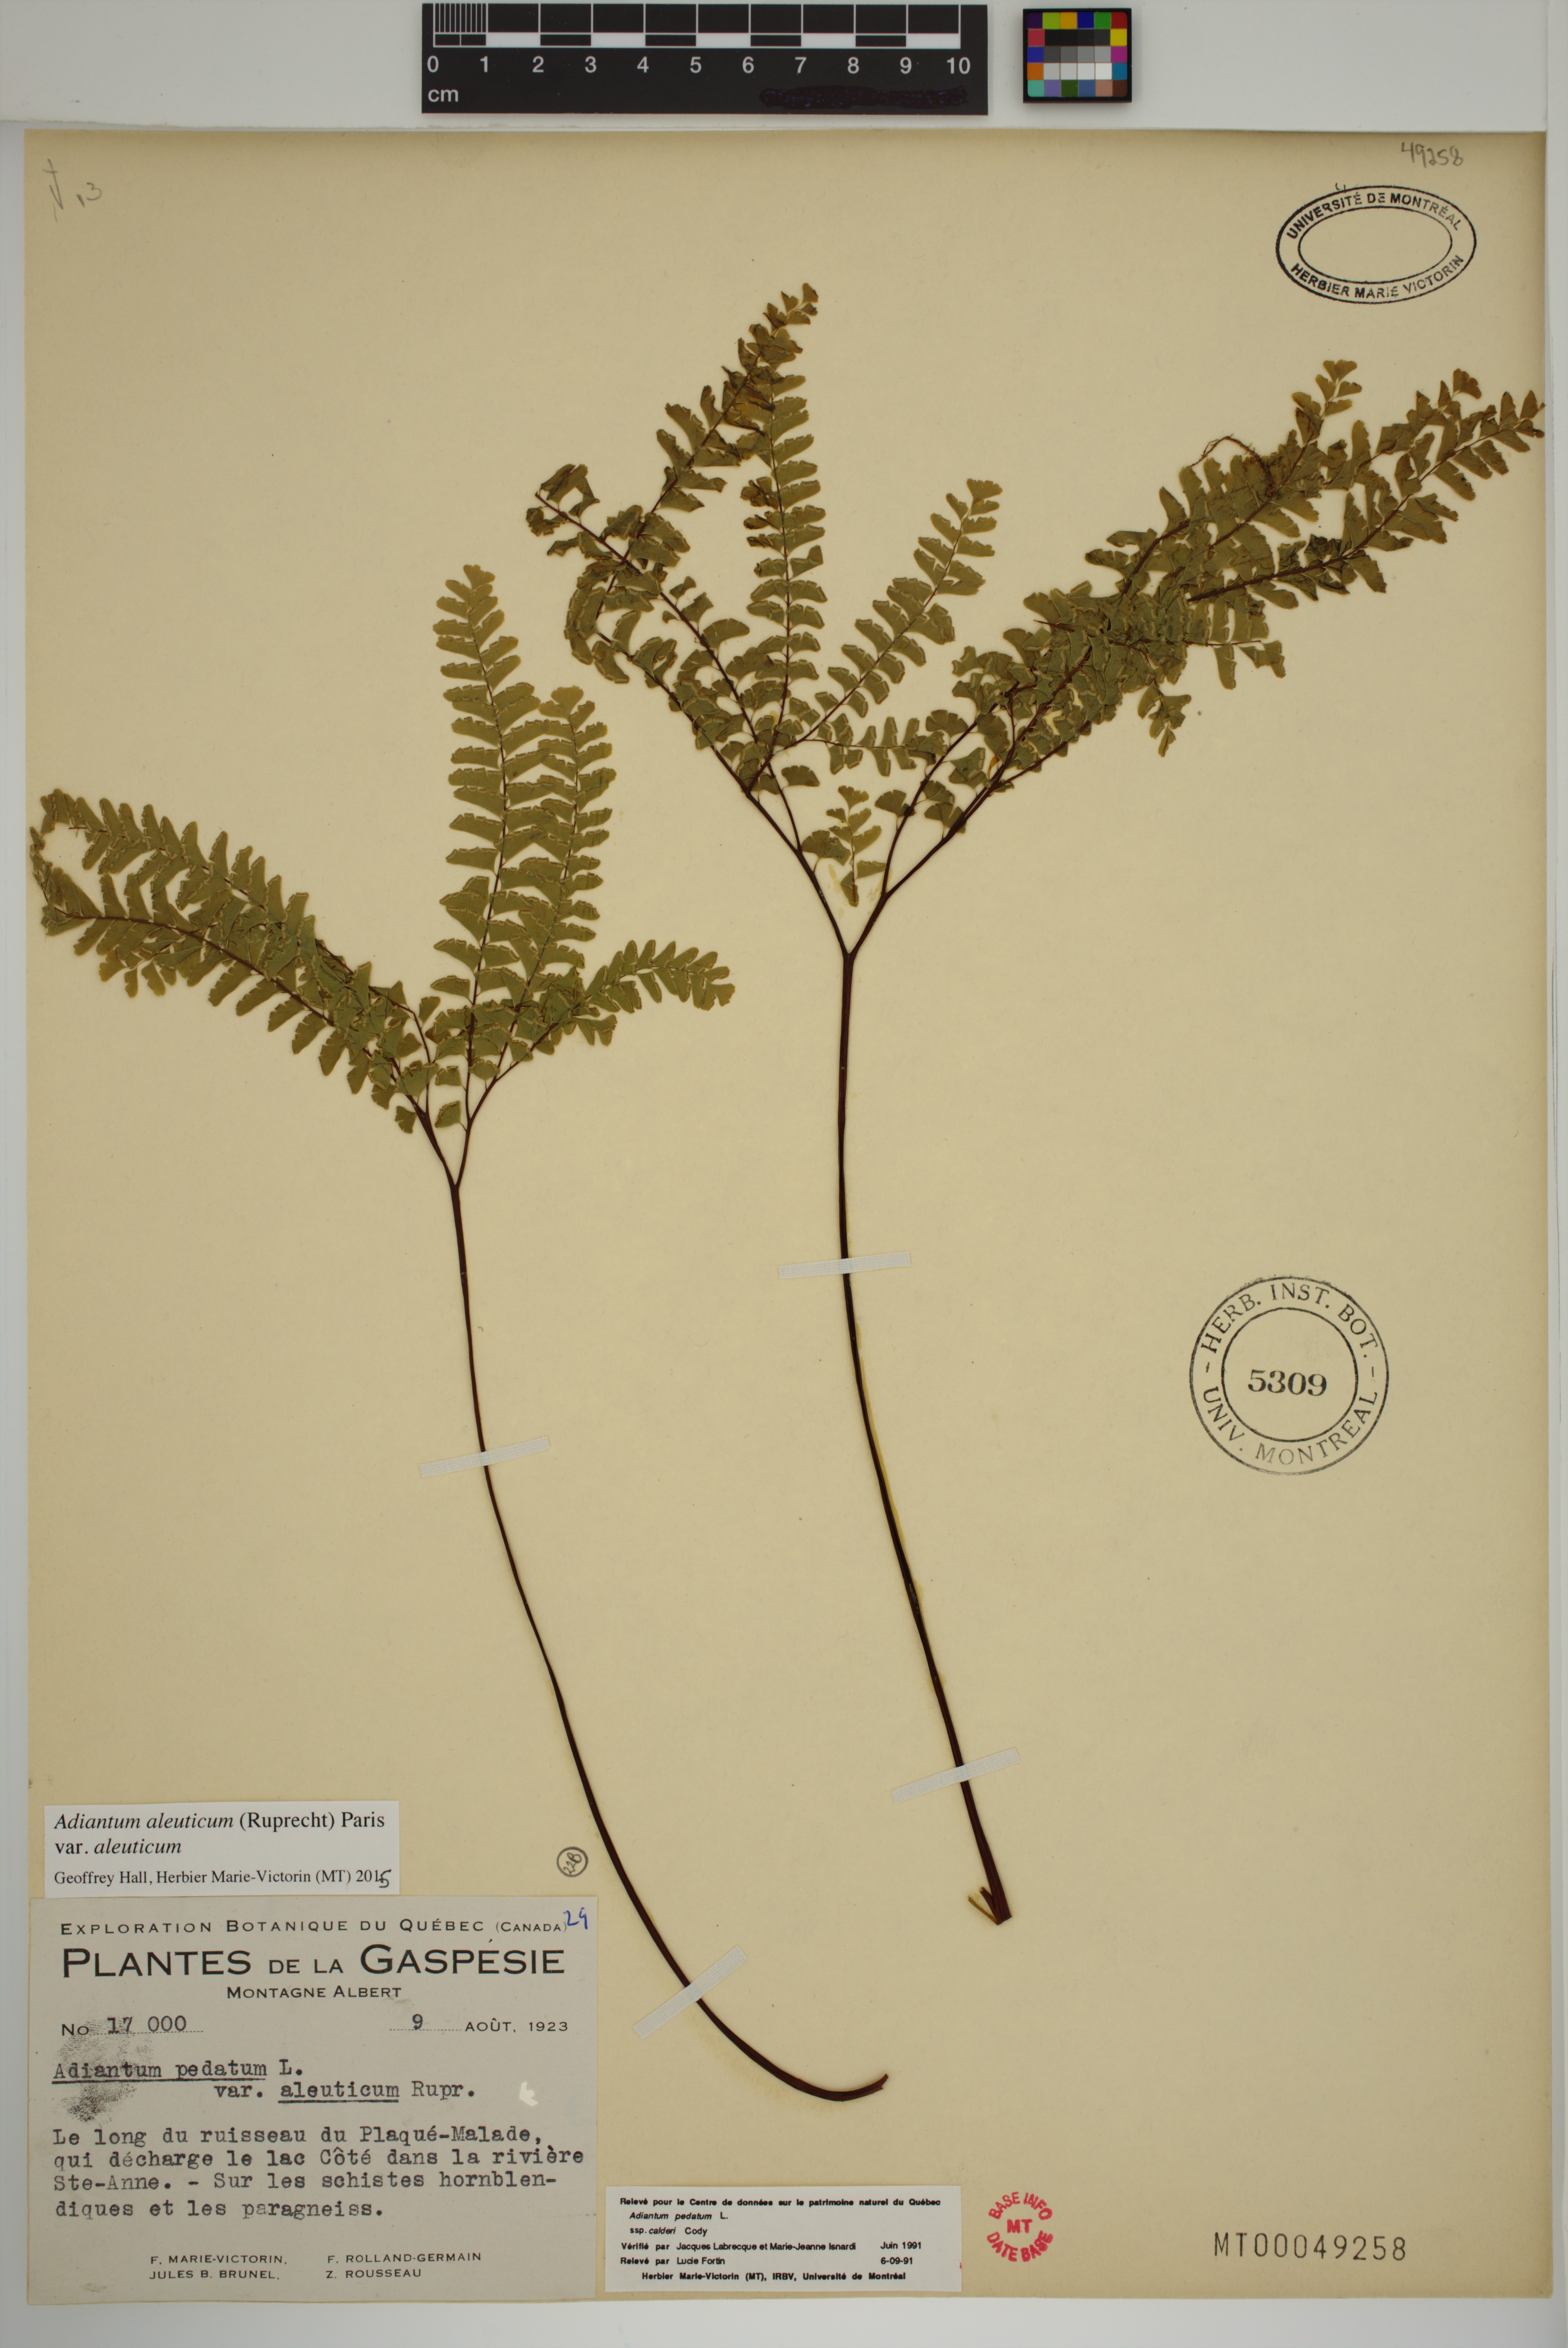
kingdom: Plantae
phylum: Tracheophyta
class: Polypodiopsida
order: Polypodiales
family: Pteridaceae
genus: Adiantum
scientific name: Adiantum aleuticum
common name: Aleutian maidenhair fern
